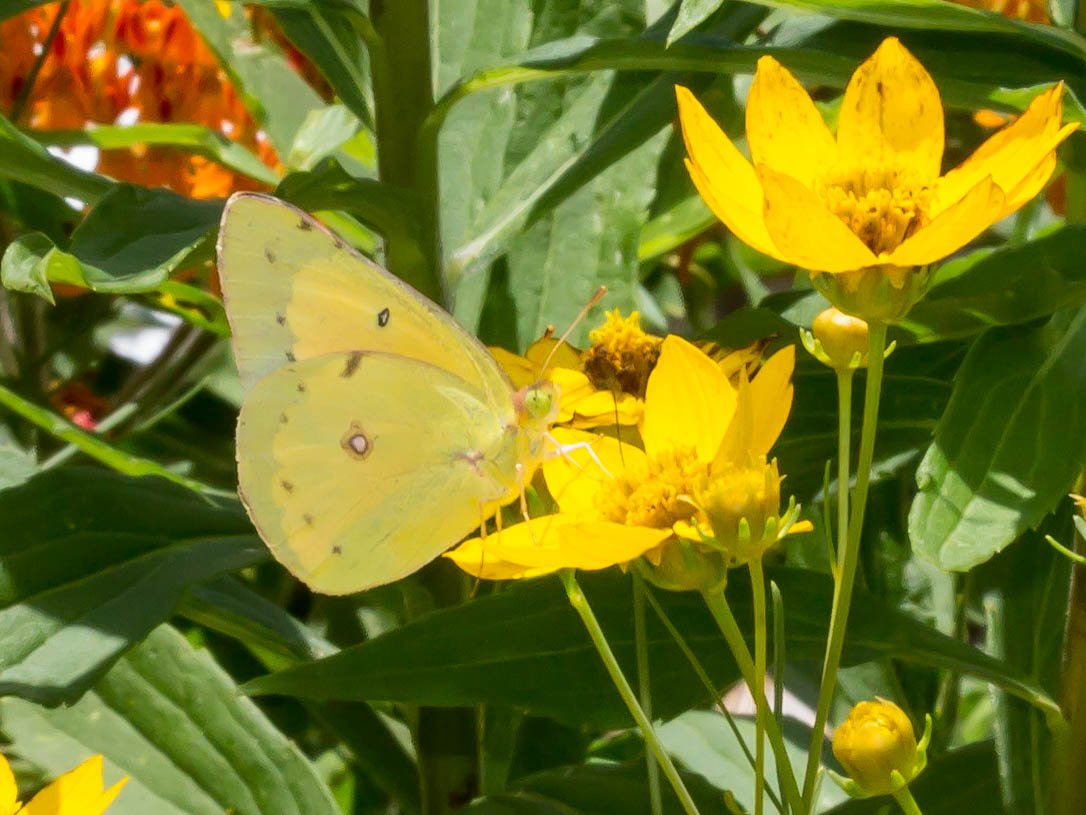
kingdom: Animalia
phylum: Arthropoda
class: Insecta
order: Lepidoptera
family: Pieridae
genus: Colias
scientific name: Colias eurytheme
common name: Orange Sulphur
